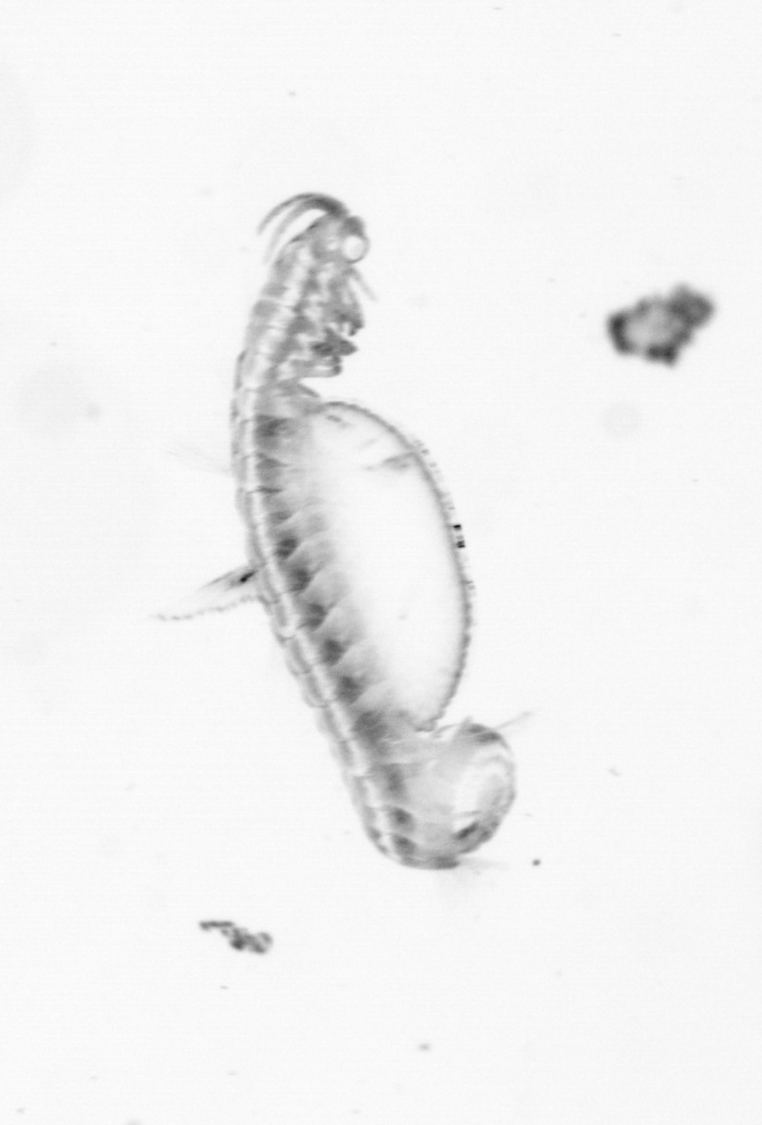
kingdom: Animalia
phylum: Annelida
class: Polychaeta
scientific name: Polychaeta
